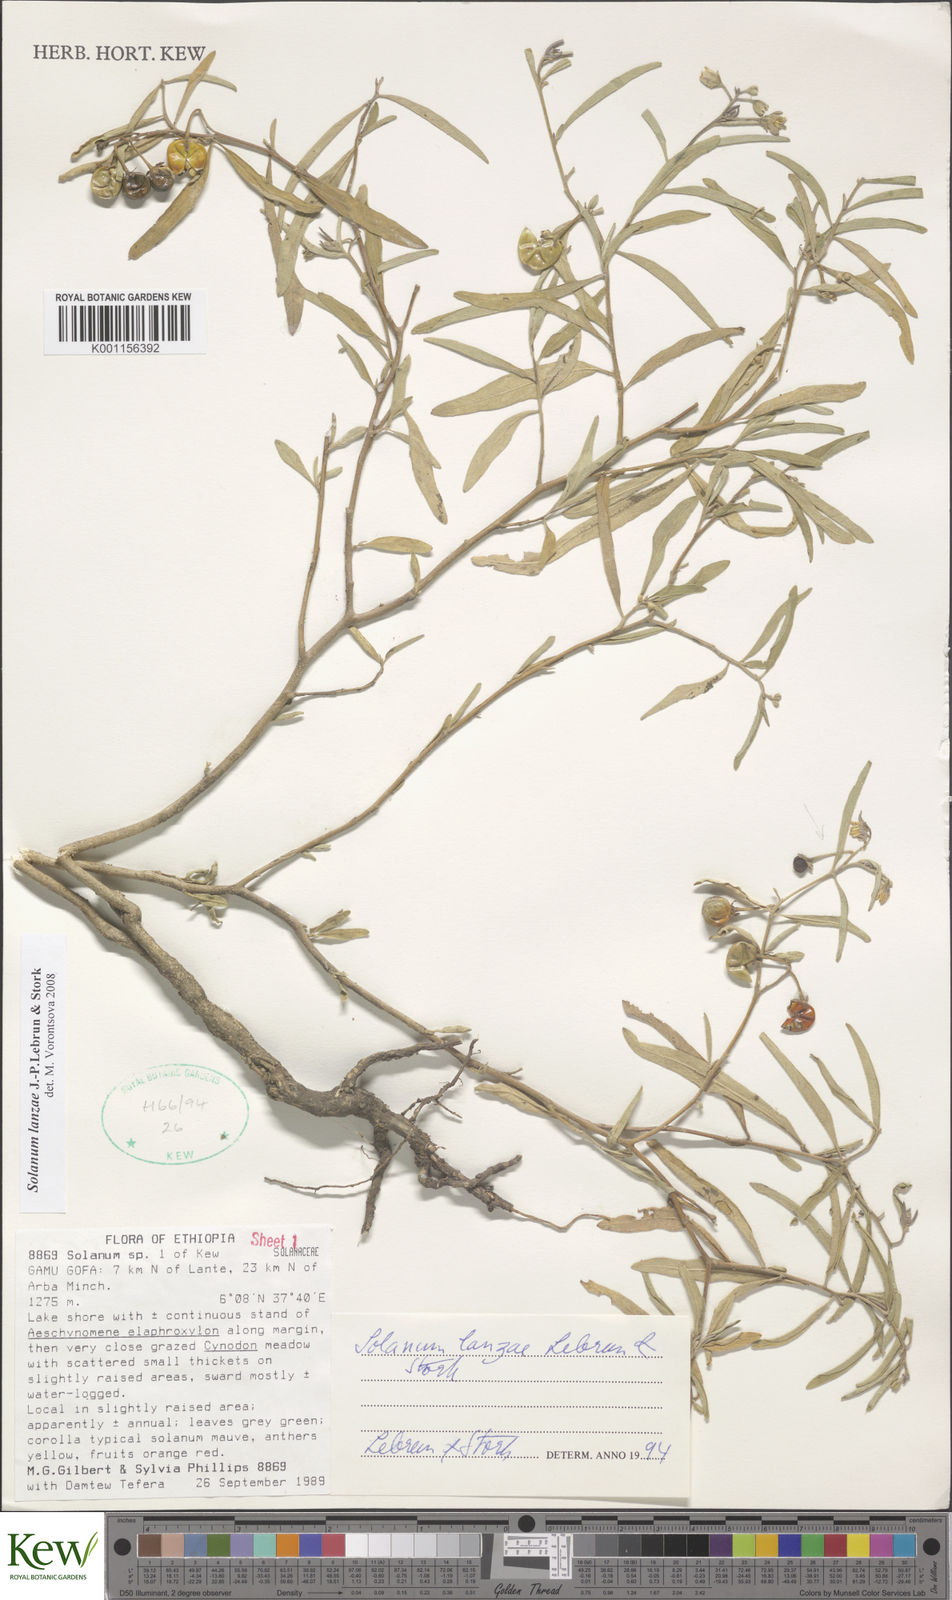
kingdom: Plantae
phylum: Tracheophyta
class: Magnoliopsida
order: Solanales
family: Solanaceae
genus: Solanum
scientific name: Solanum lanzae
